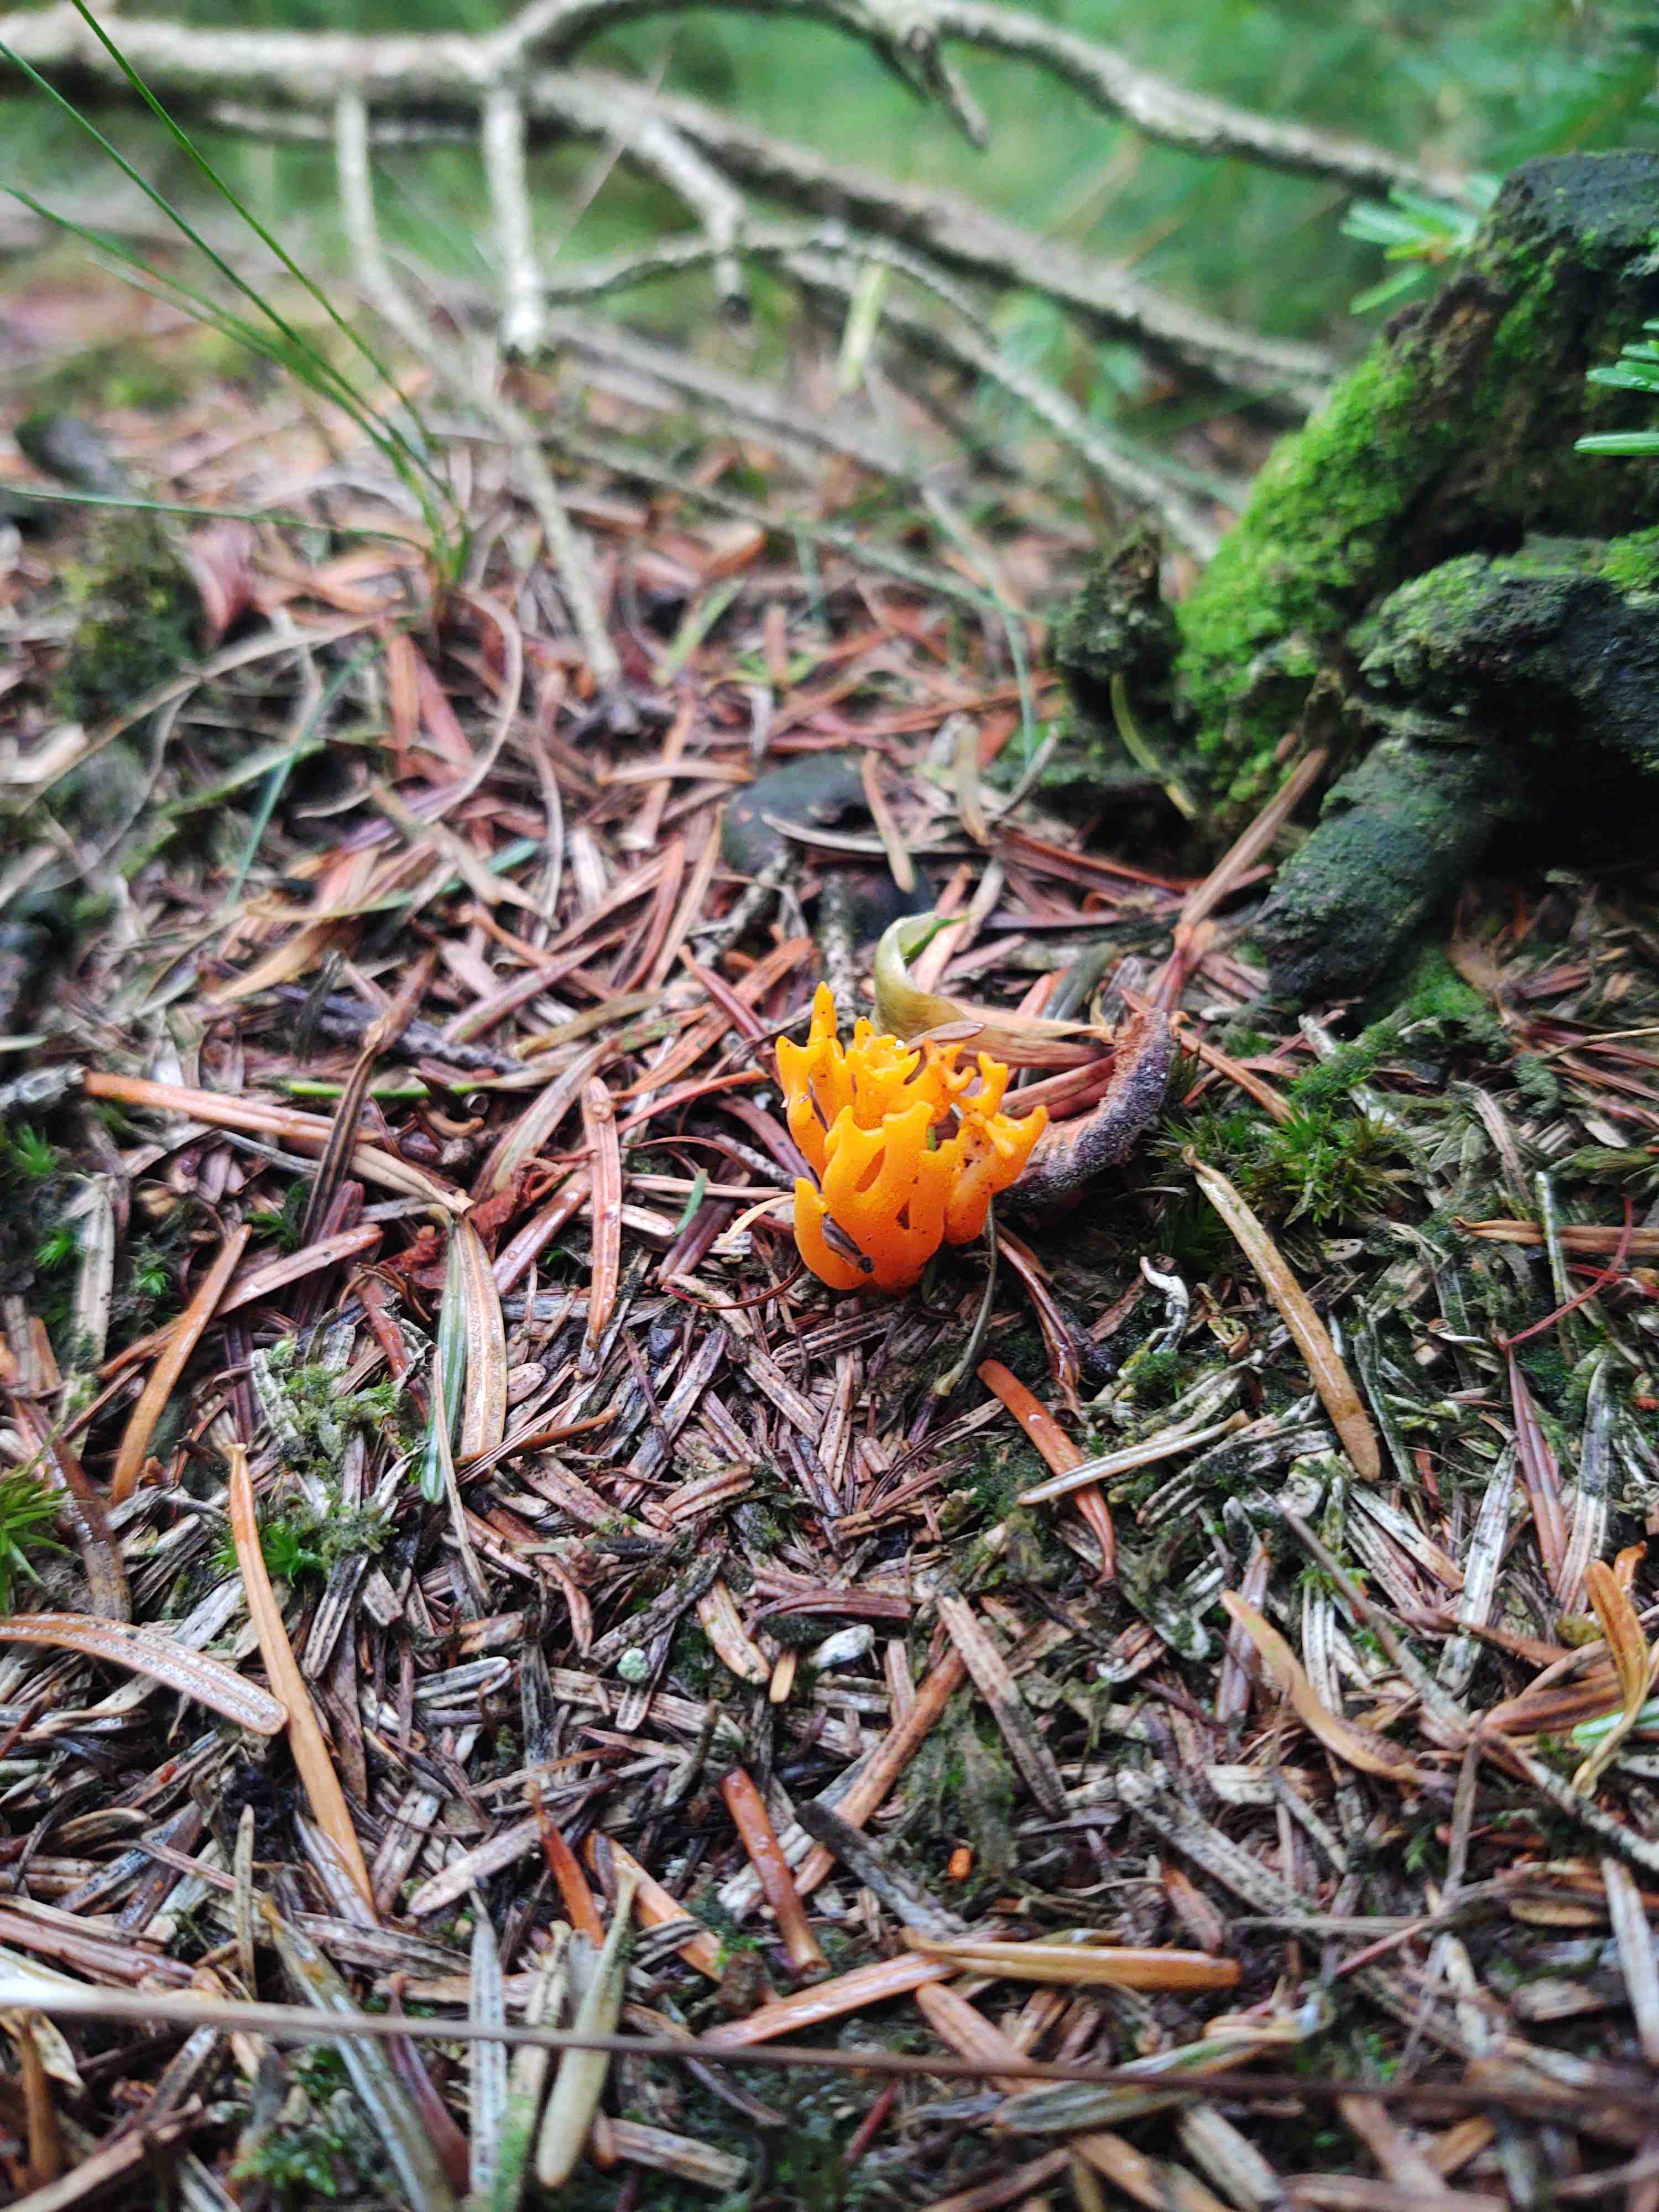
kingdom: Fungi
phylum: Basidiomycota
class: Dacrymycetes
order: Dacrymycetales
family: Dacrymycetaceae
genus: Calocera
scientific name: Calocera viscosa
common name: almindelig guldgaffel
